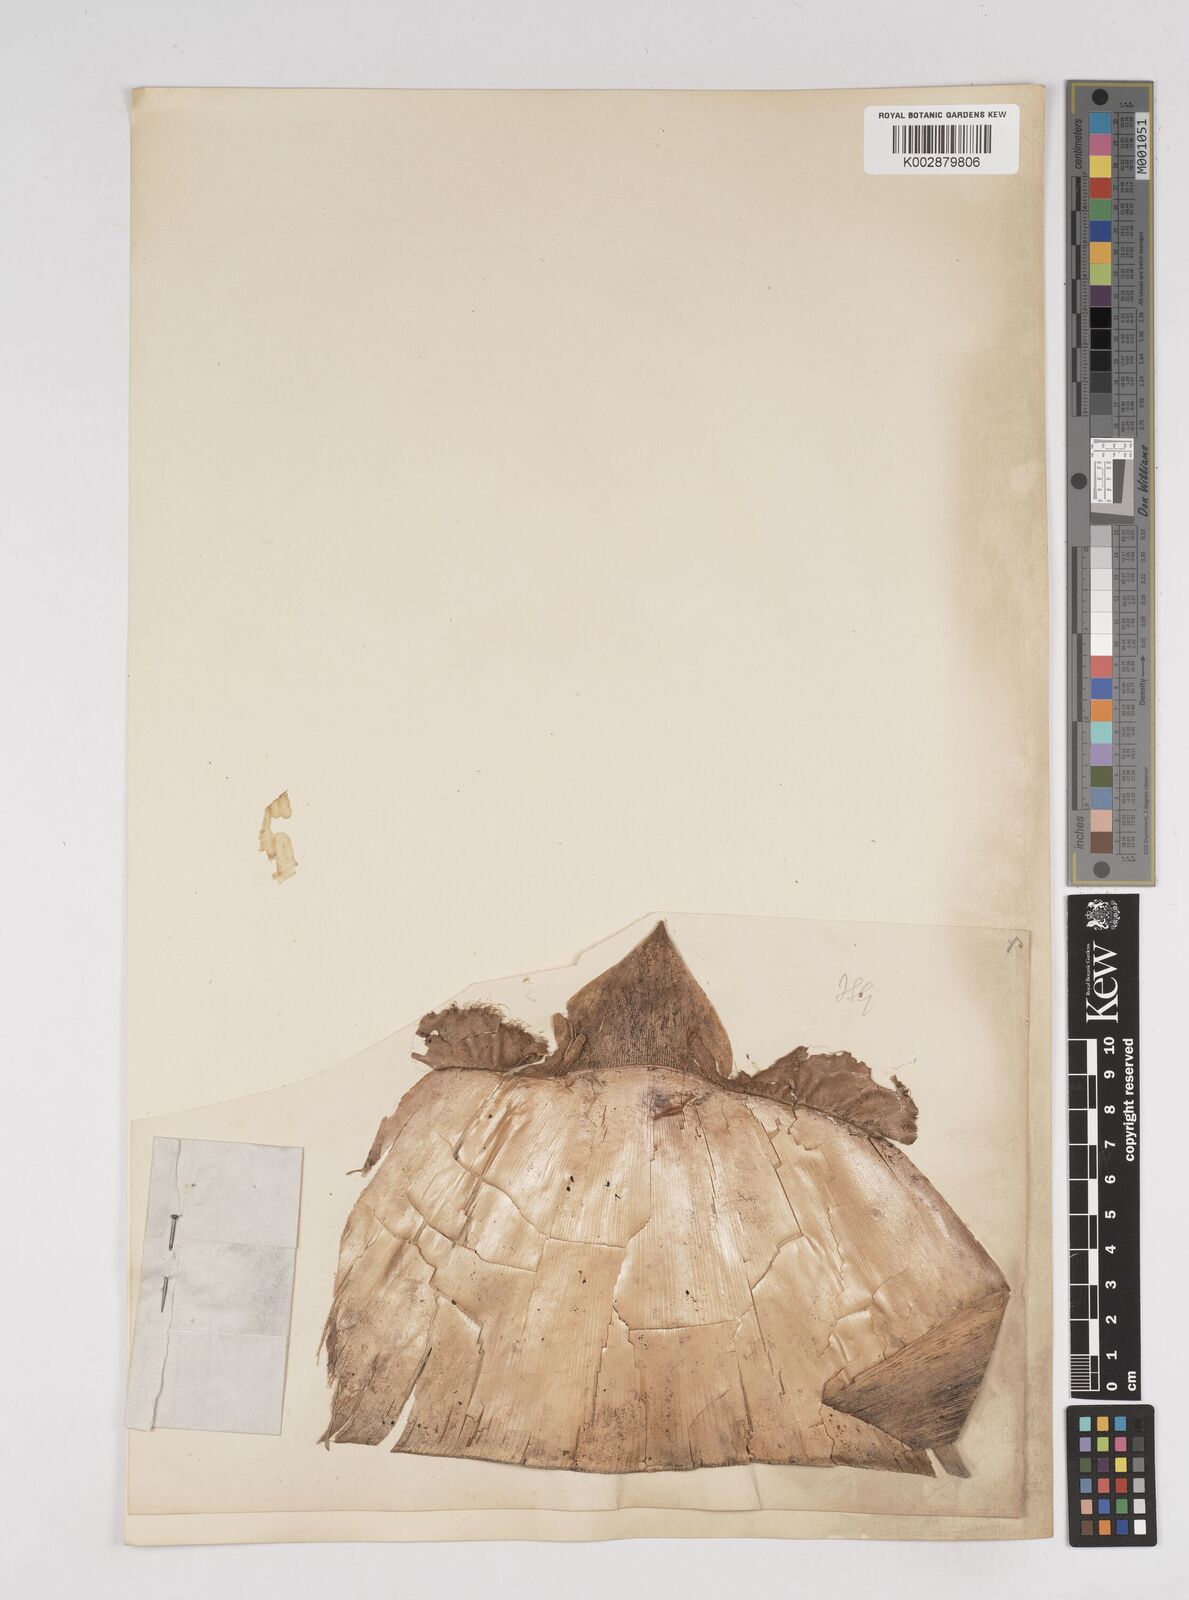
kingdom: Plantae
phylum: Tracheophyta
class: Liliopsida
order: Poales
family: Poaceae
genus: Gigantochloa
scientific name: Gigantochloa macrostachya
